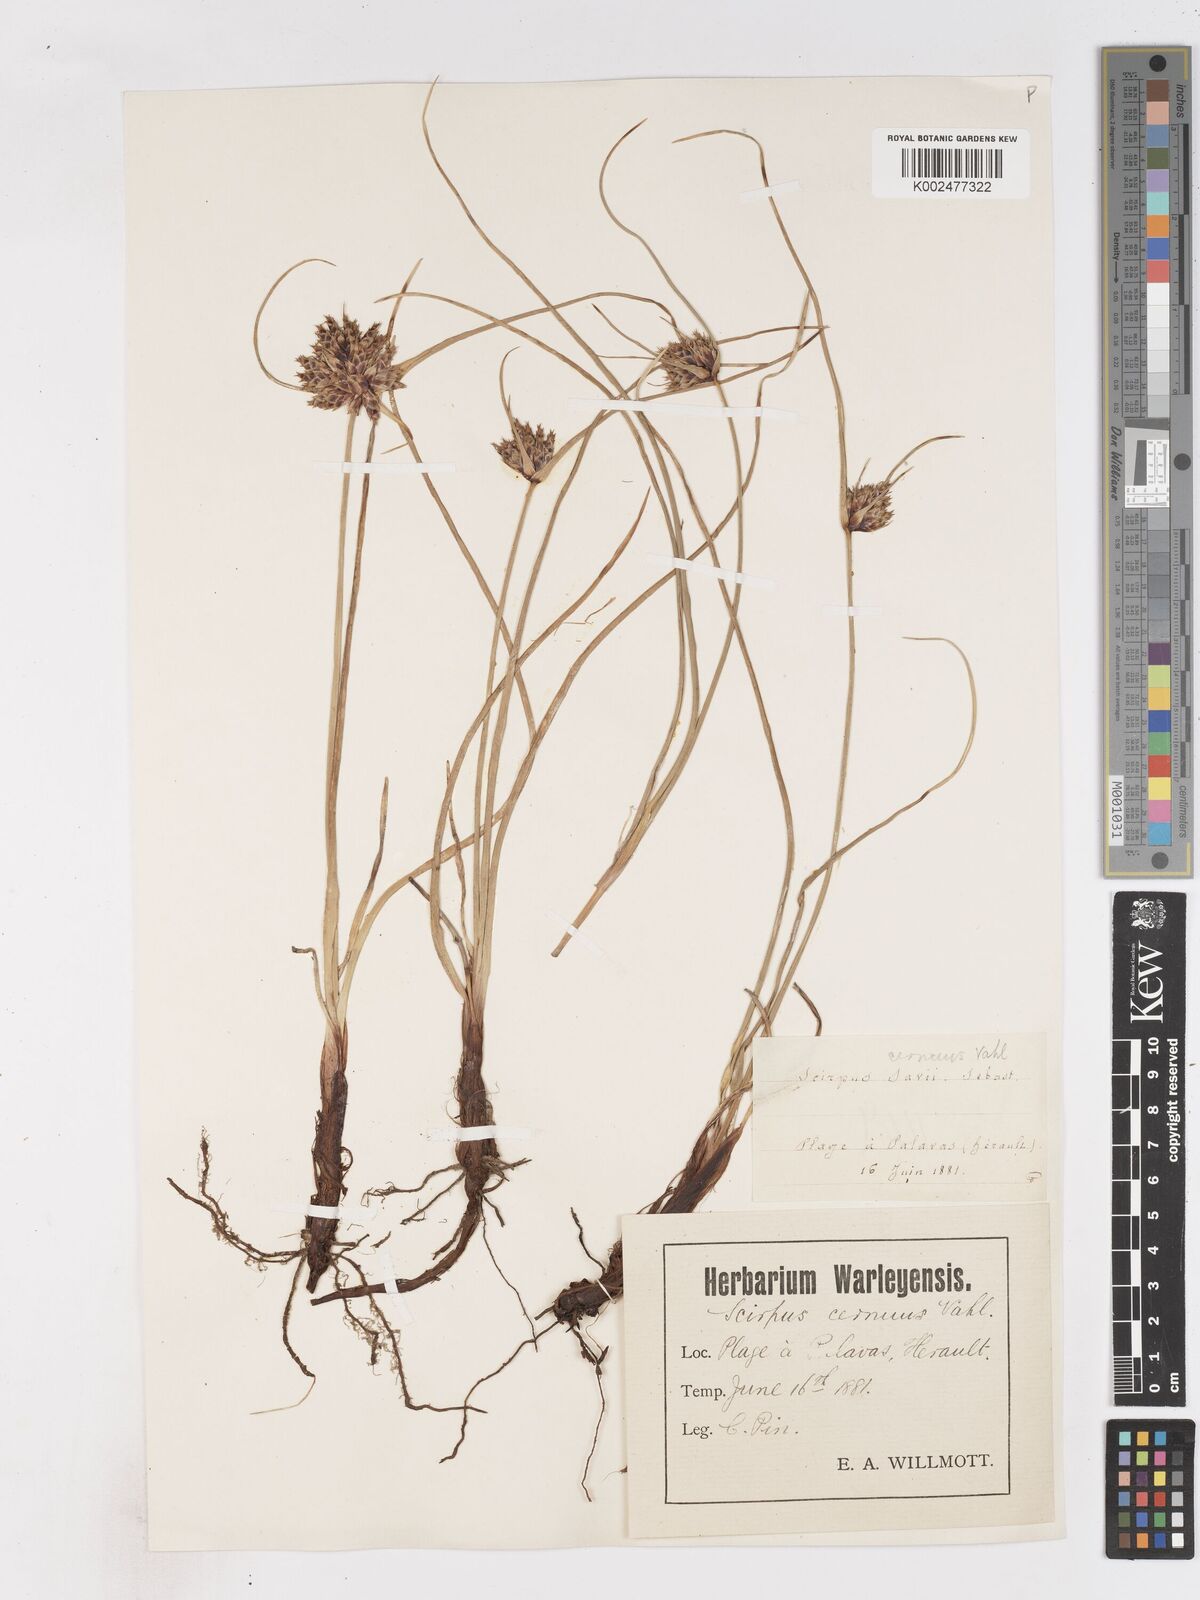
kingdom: Plantae
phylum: Tracheophyta
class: Liliopsida
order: Poales
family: Cyperaceae
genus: Cyperus
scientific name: Cyperus capitatus
